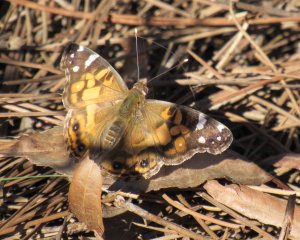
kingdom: Animalia
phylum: Arthropoda
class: Insecta
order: Lepidoptera
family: Nymphalidae
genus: Vanessa
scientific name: Vanessa virginiensis
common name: American Lady
